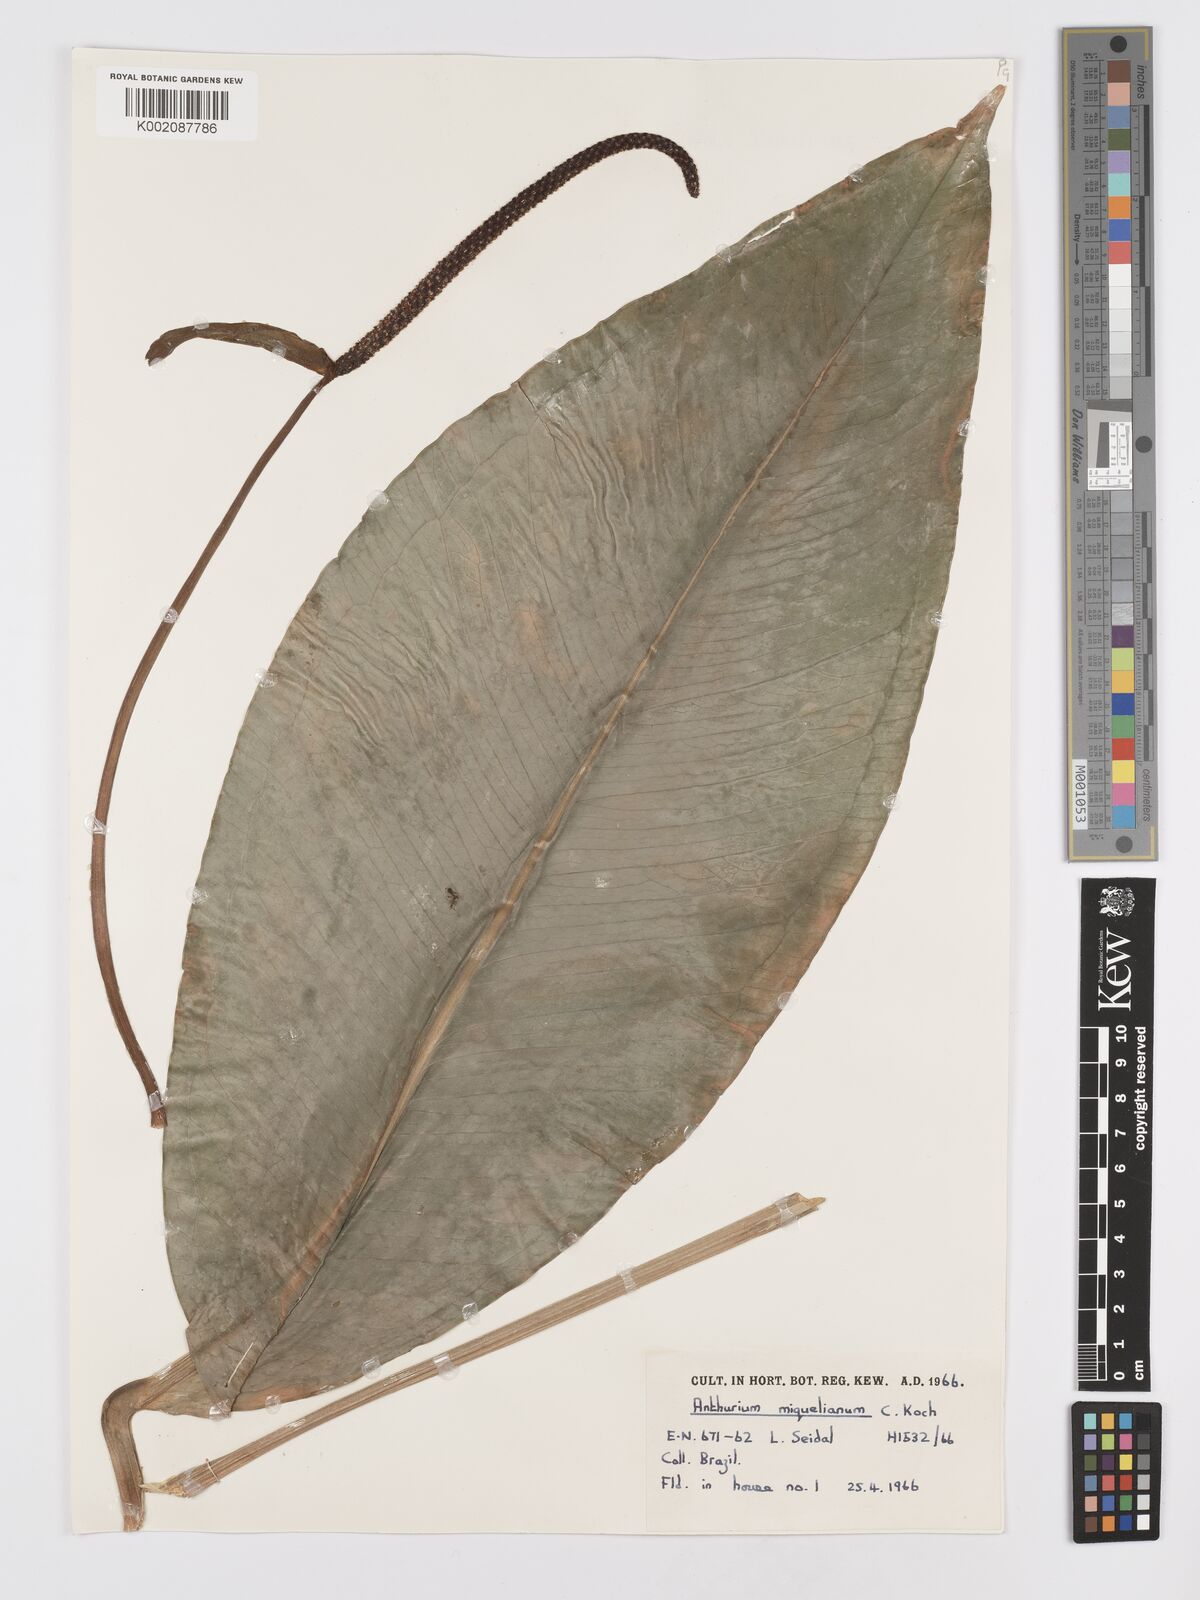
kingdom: Plantae
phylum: Tracheophyta
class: Liliopsida
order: Alismatales
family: Araceae
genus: Anthurium
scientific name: Anthurium parasiticum
